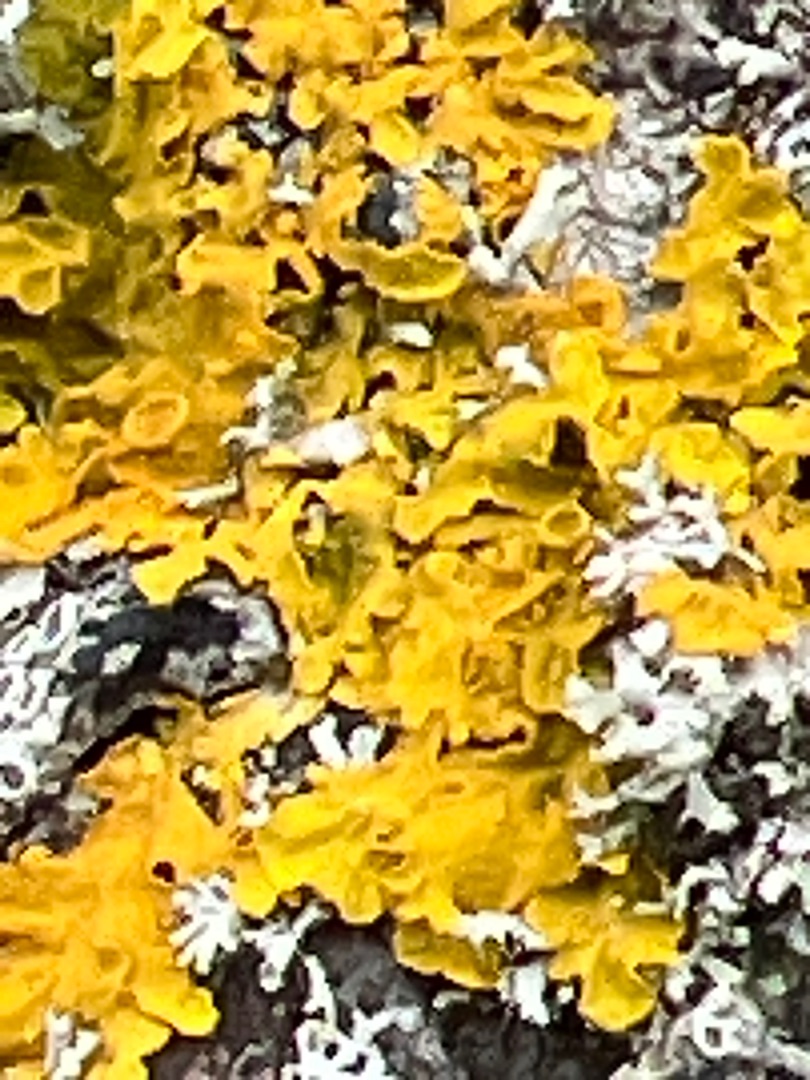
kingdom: Fungi
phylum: Ascomycota
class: Lecanoromycetes
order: Teloschistales
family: Teloschistaceae
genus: Xanthoria
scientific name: Xanthoria parietina
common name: Almindelig væggelav
